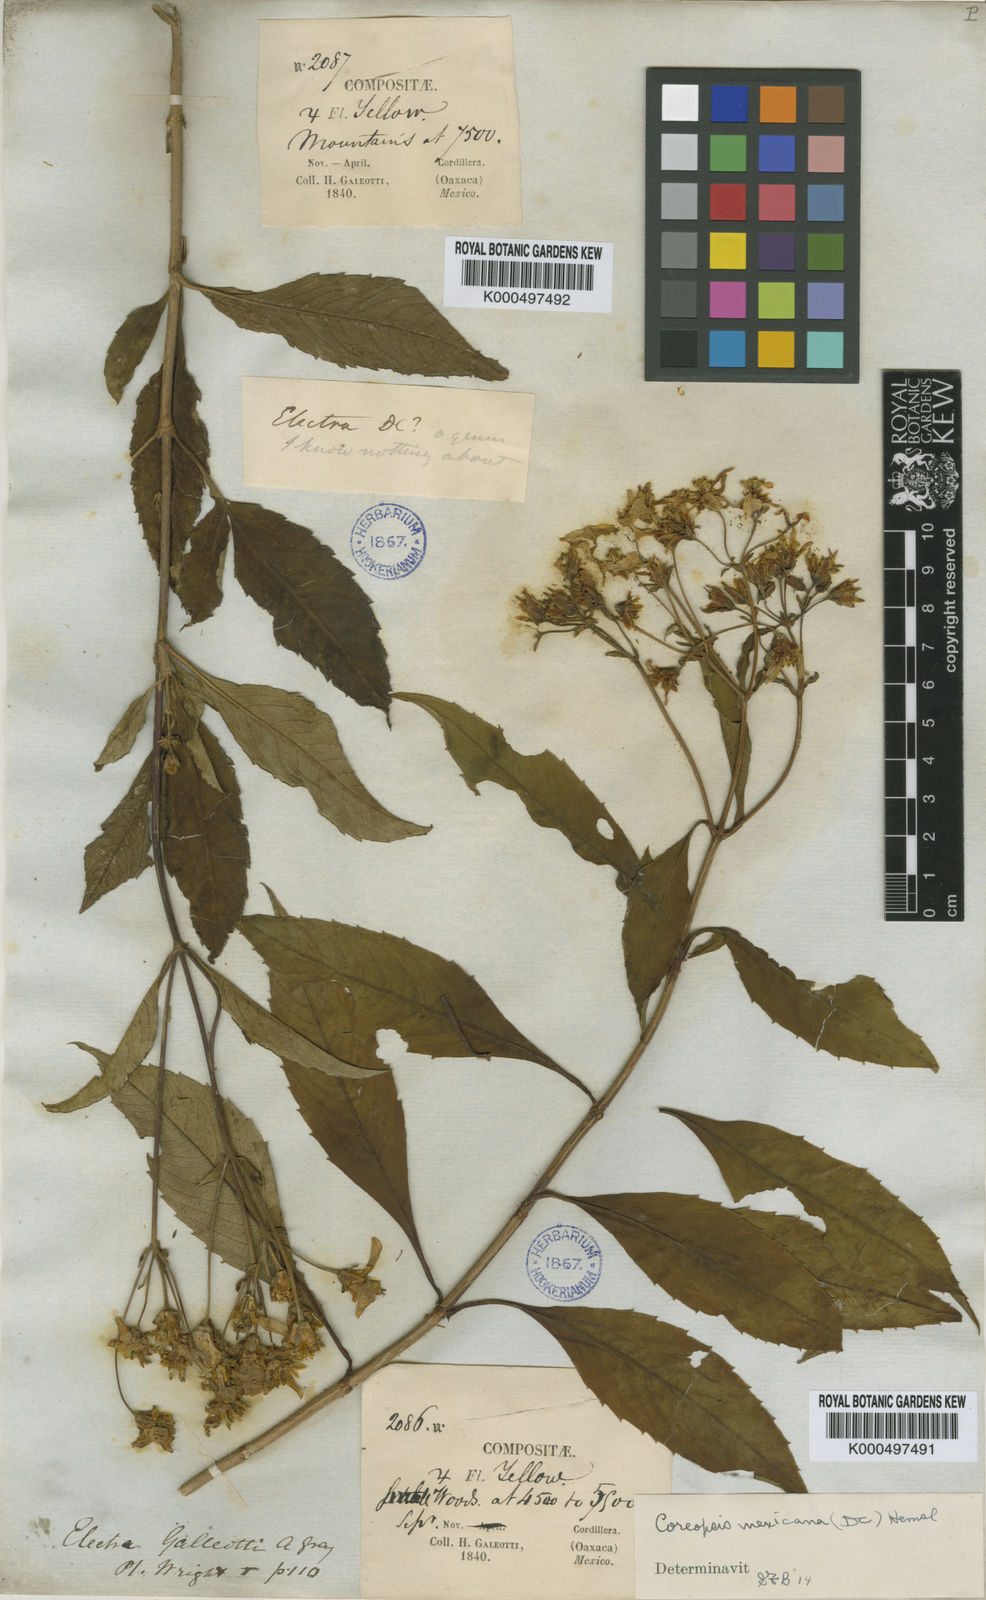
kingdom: Plantae
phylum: Tracheophyta
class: Magnoliopsida
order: Asterales
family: Asteraceae
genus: Electranthera
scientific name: Electranthera mutica
